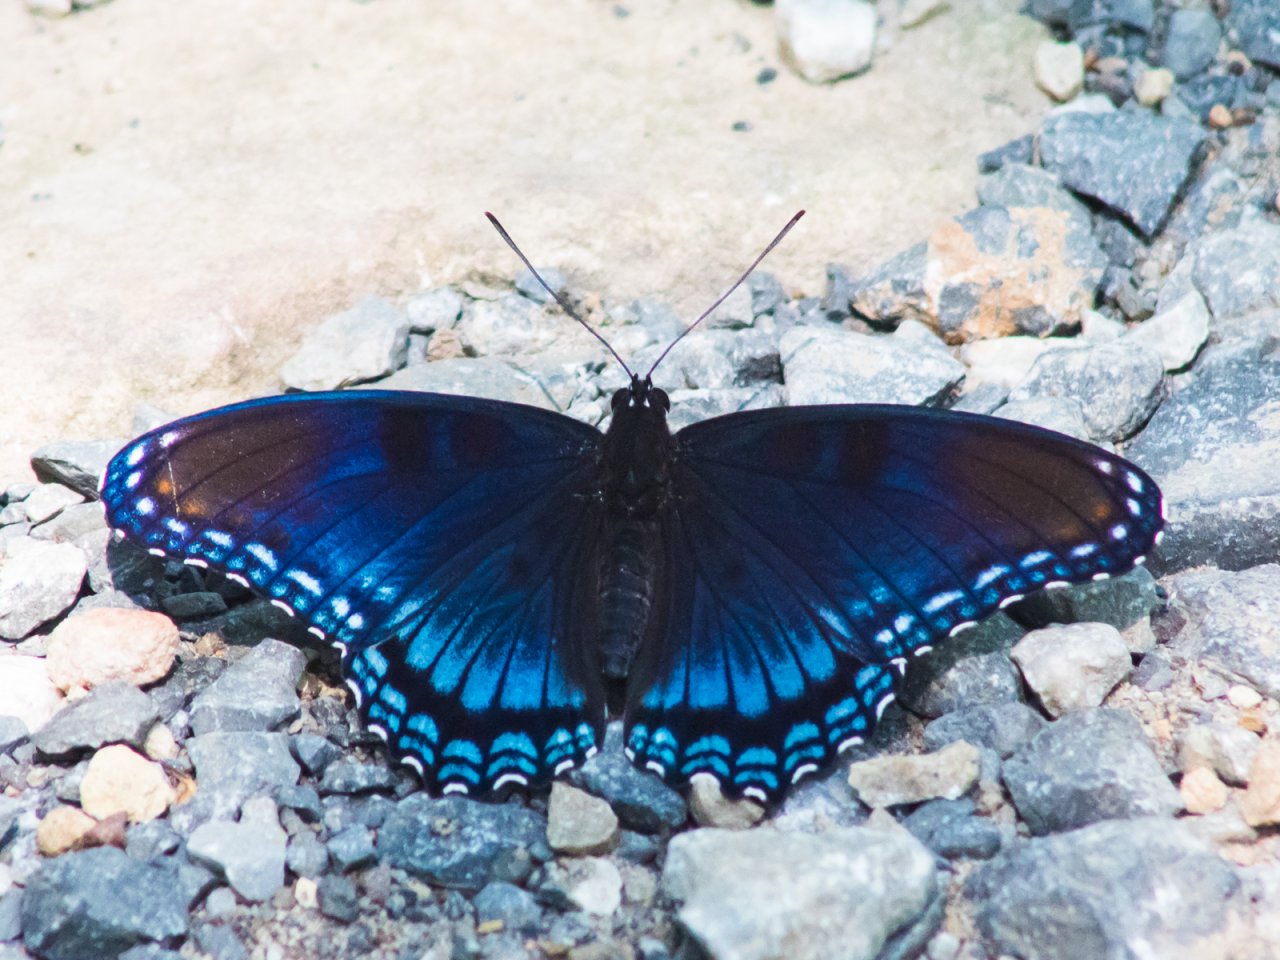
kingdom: Animalia
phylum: Arthropoda
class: Insecta
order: Lepidoptera
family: Nymphalidae
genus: Limenitis
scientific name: Limenitis astyanax
